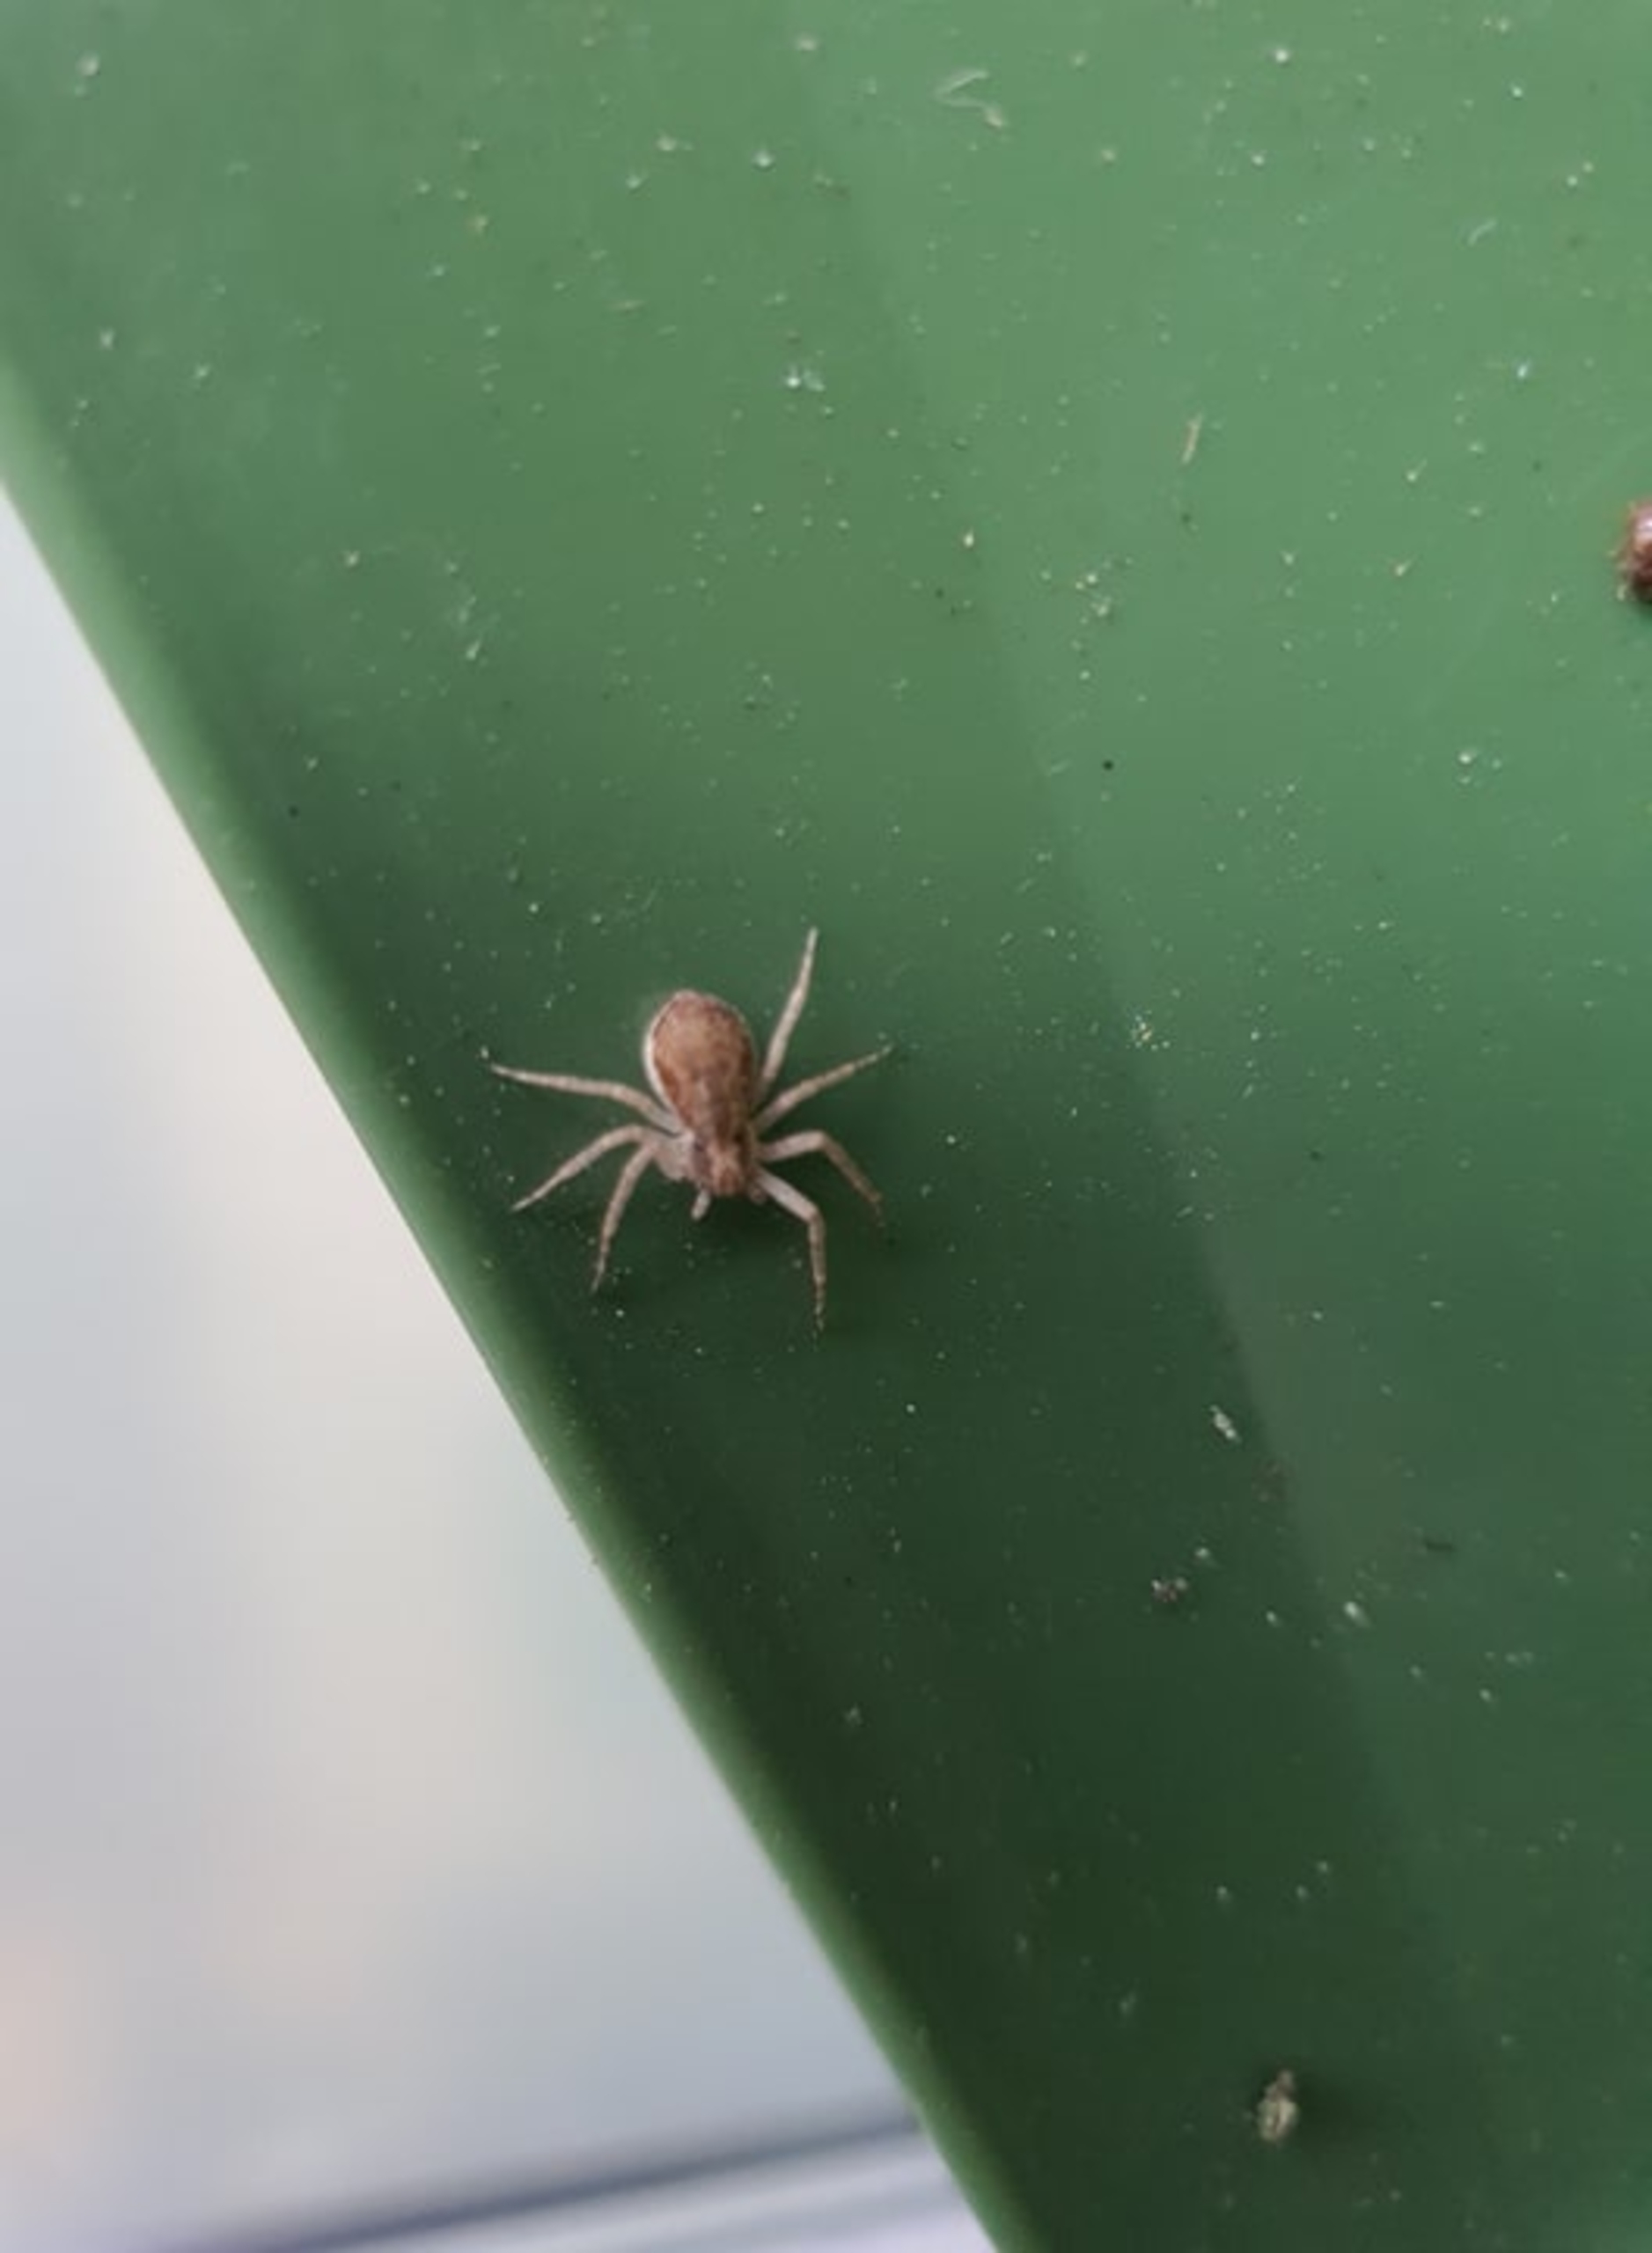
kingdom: Animalia
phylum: Arthropoda
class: Arachnida
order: Araneae
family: Philodromidae
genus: Philodromus
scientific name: Philodromus dispar
